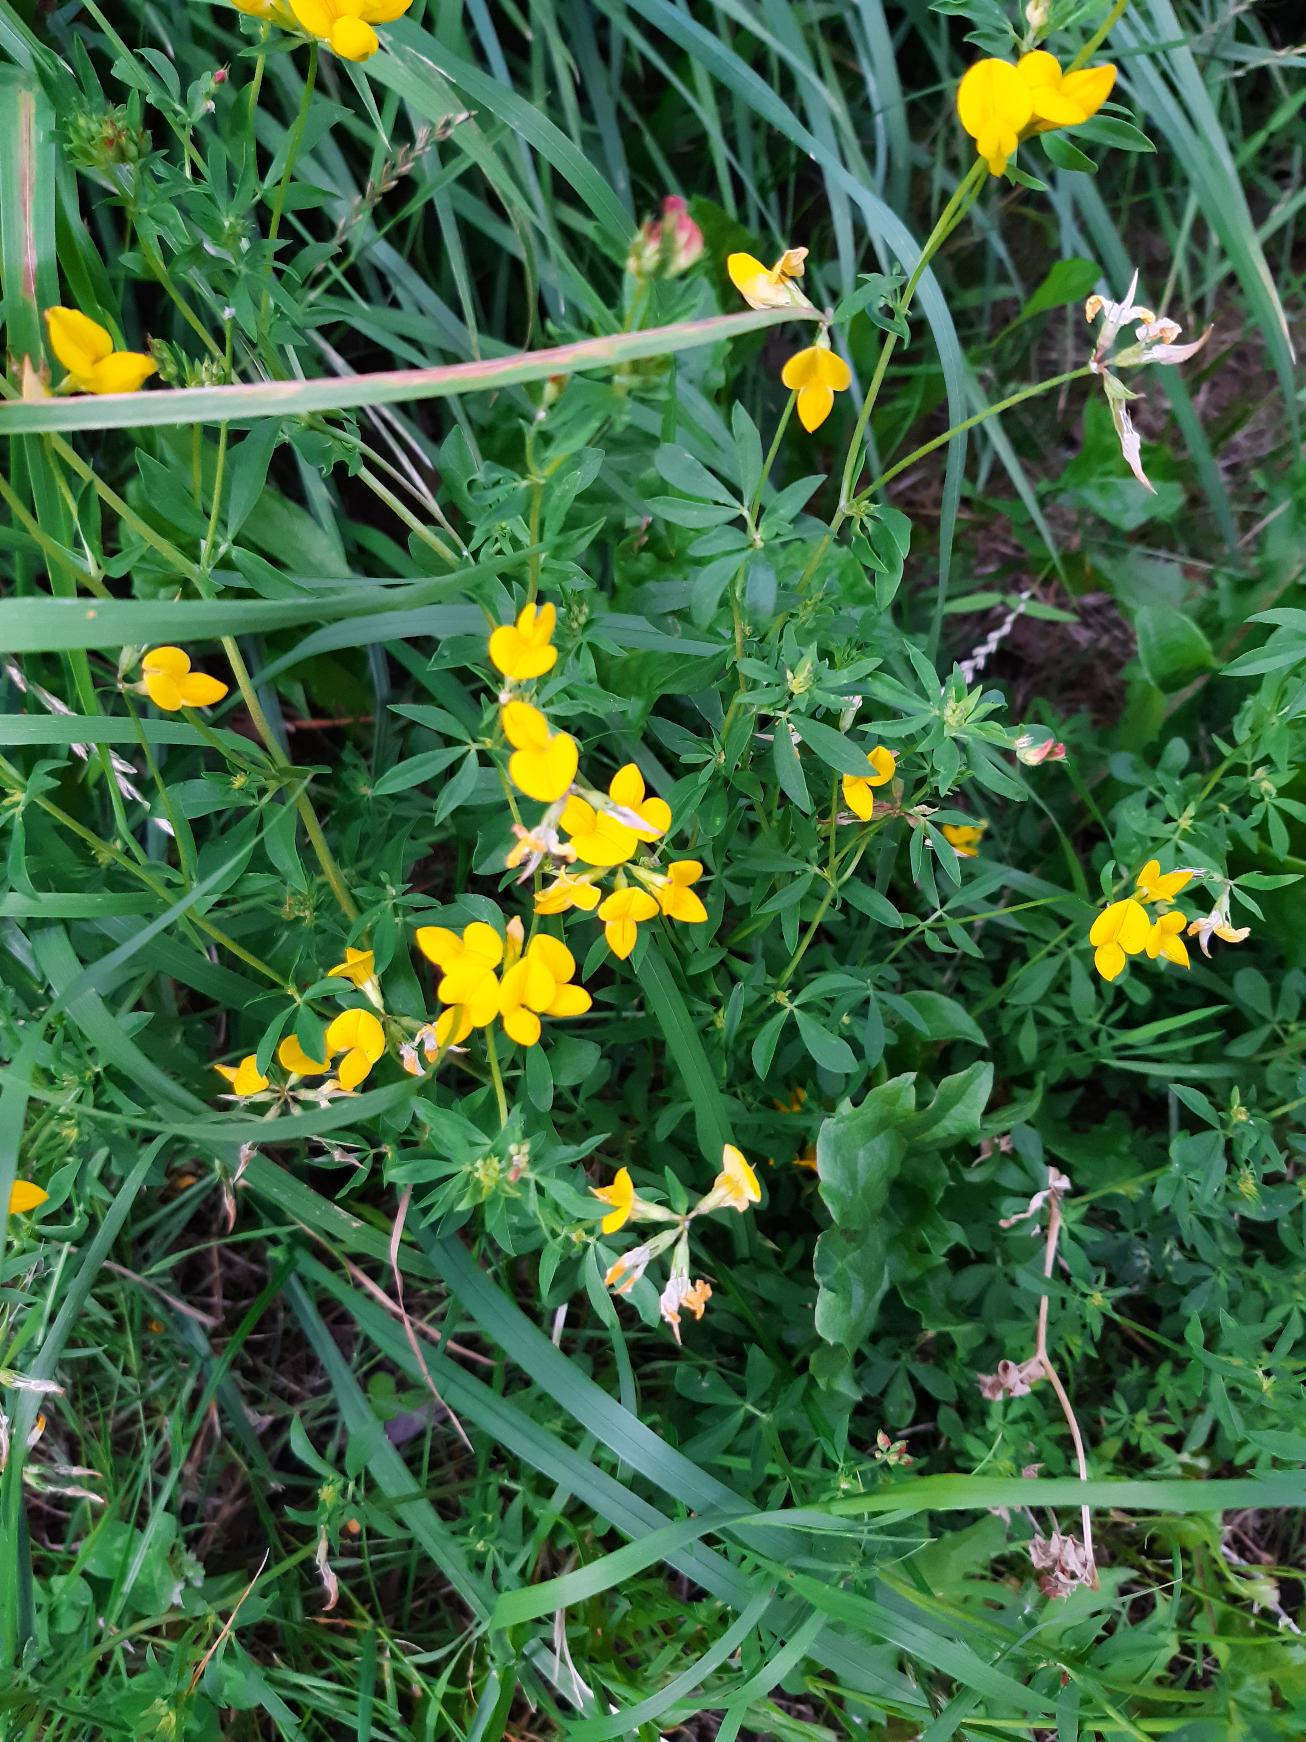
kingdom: Plantae
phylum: Tracheophyta
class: Magnoliopsida
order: Fabales
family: Fabaceae
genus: Lotus
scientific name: Lotus corniculatus
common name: Almindelig kællingetand
